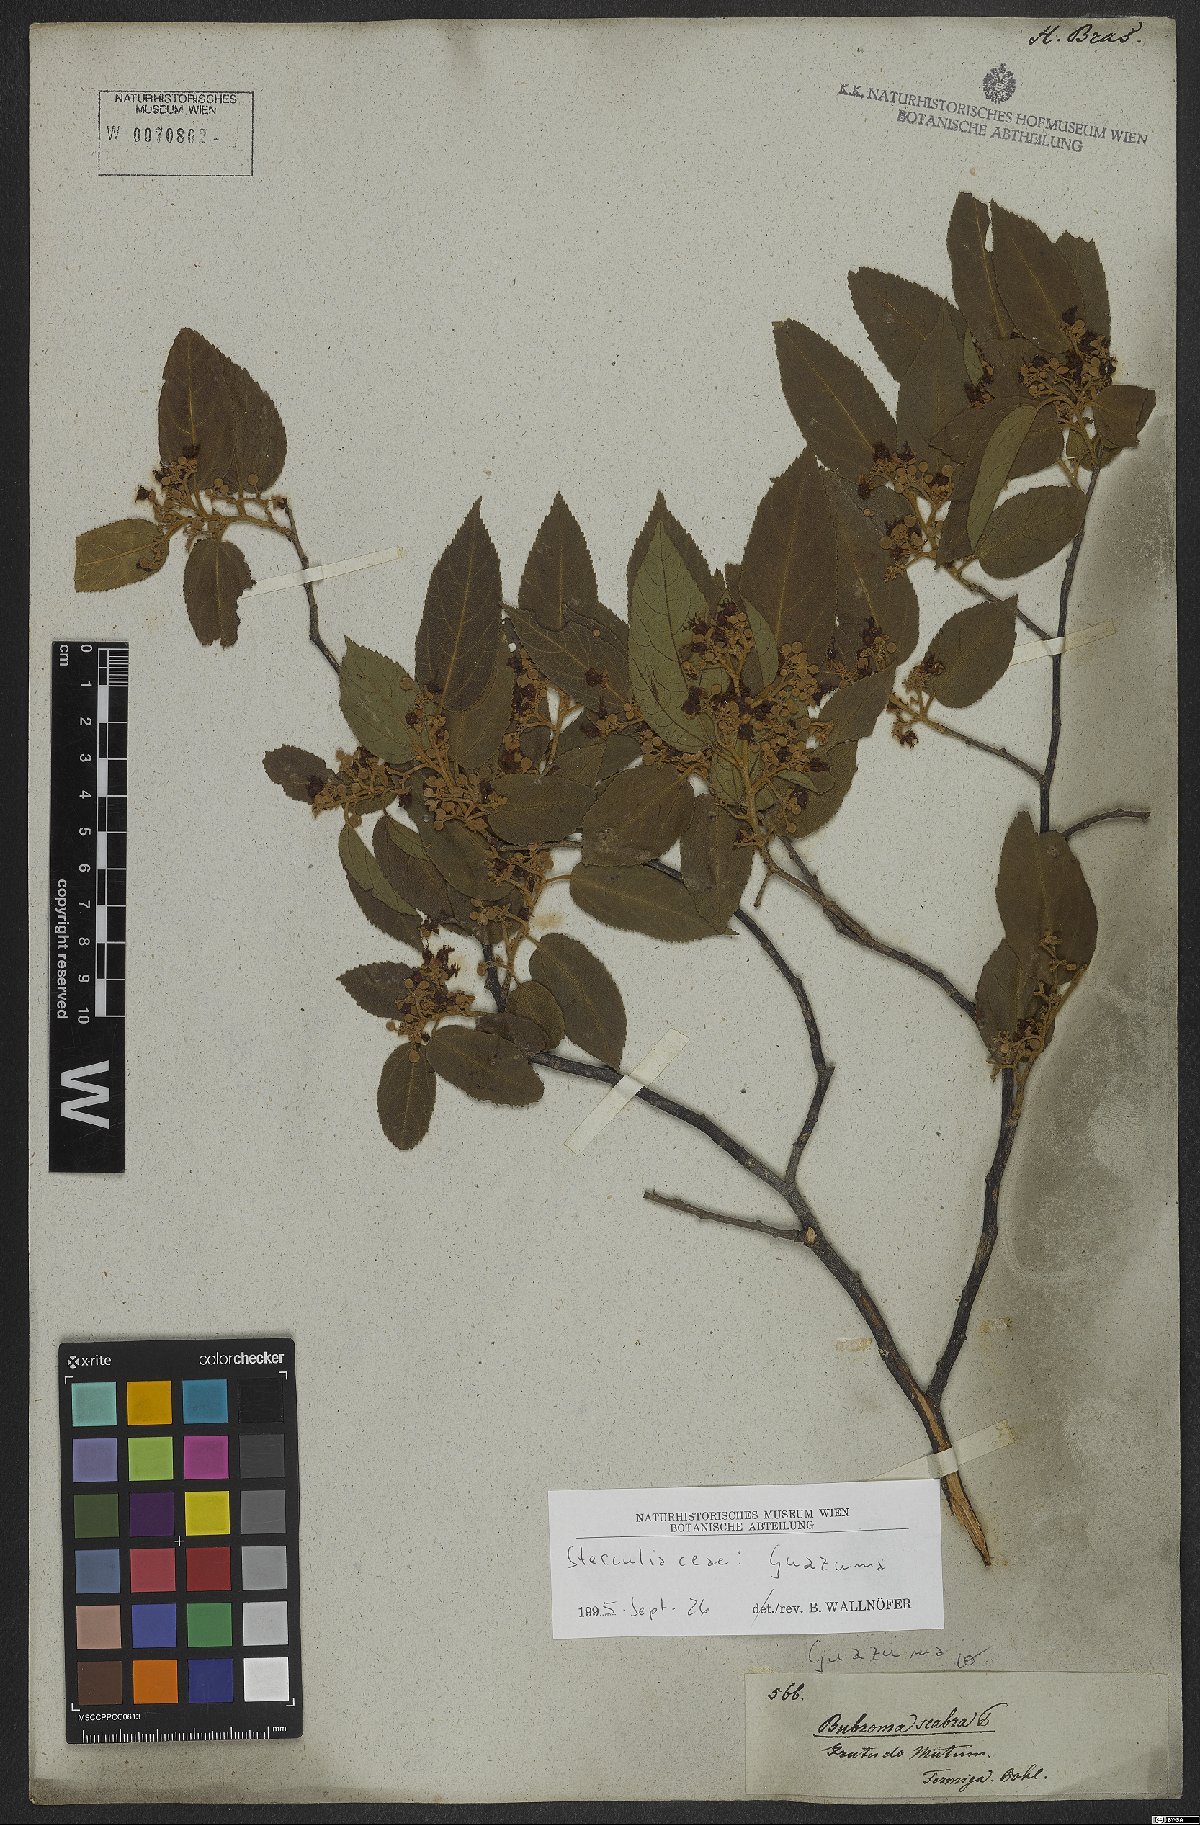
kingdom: Plantae
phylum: Tracheophyta
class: Magnoliopsida
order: Malvales
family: Malvaceae
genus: Guazuma
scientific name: Guazuma
